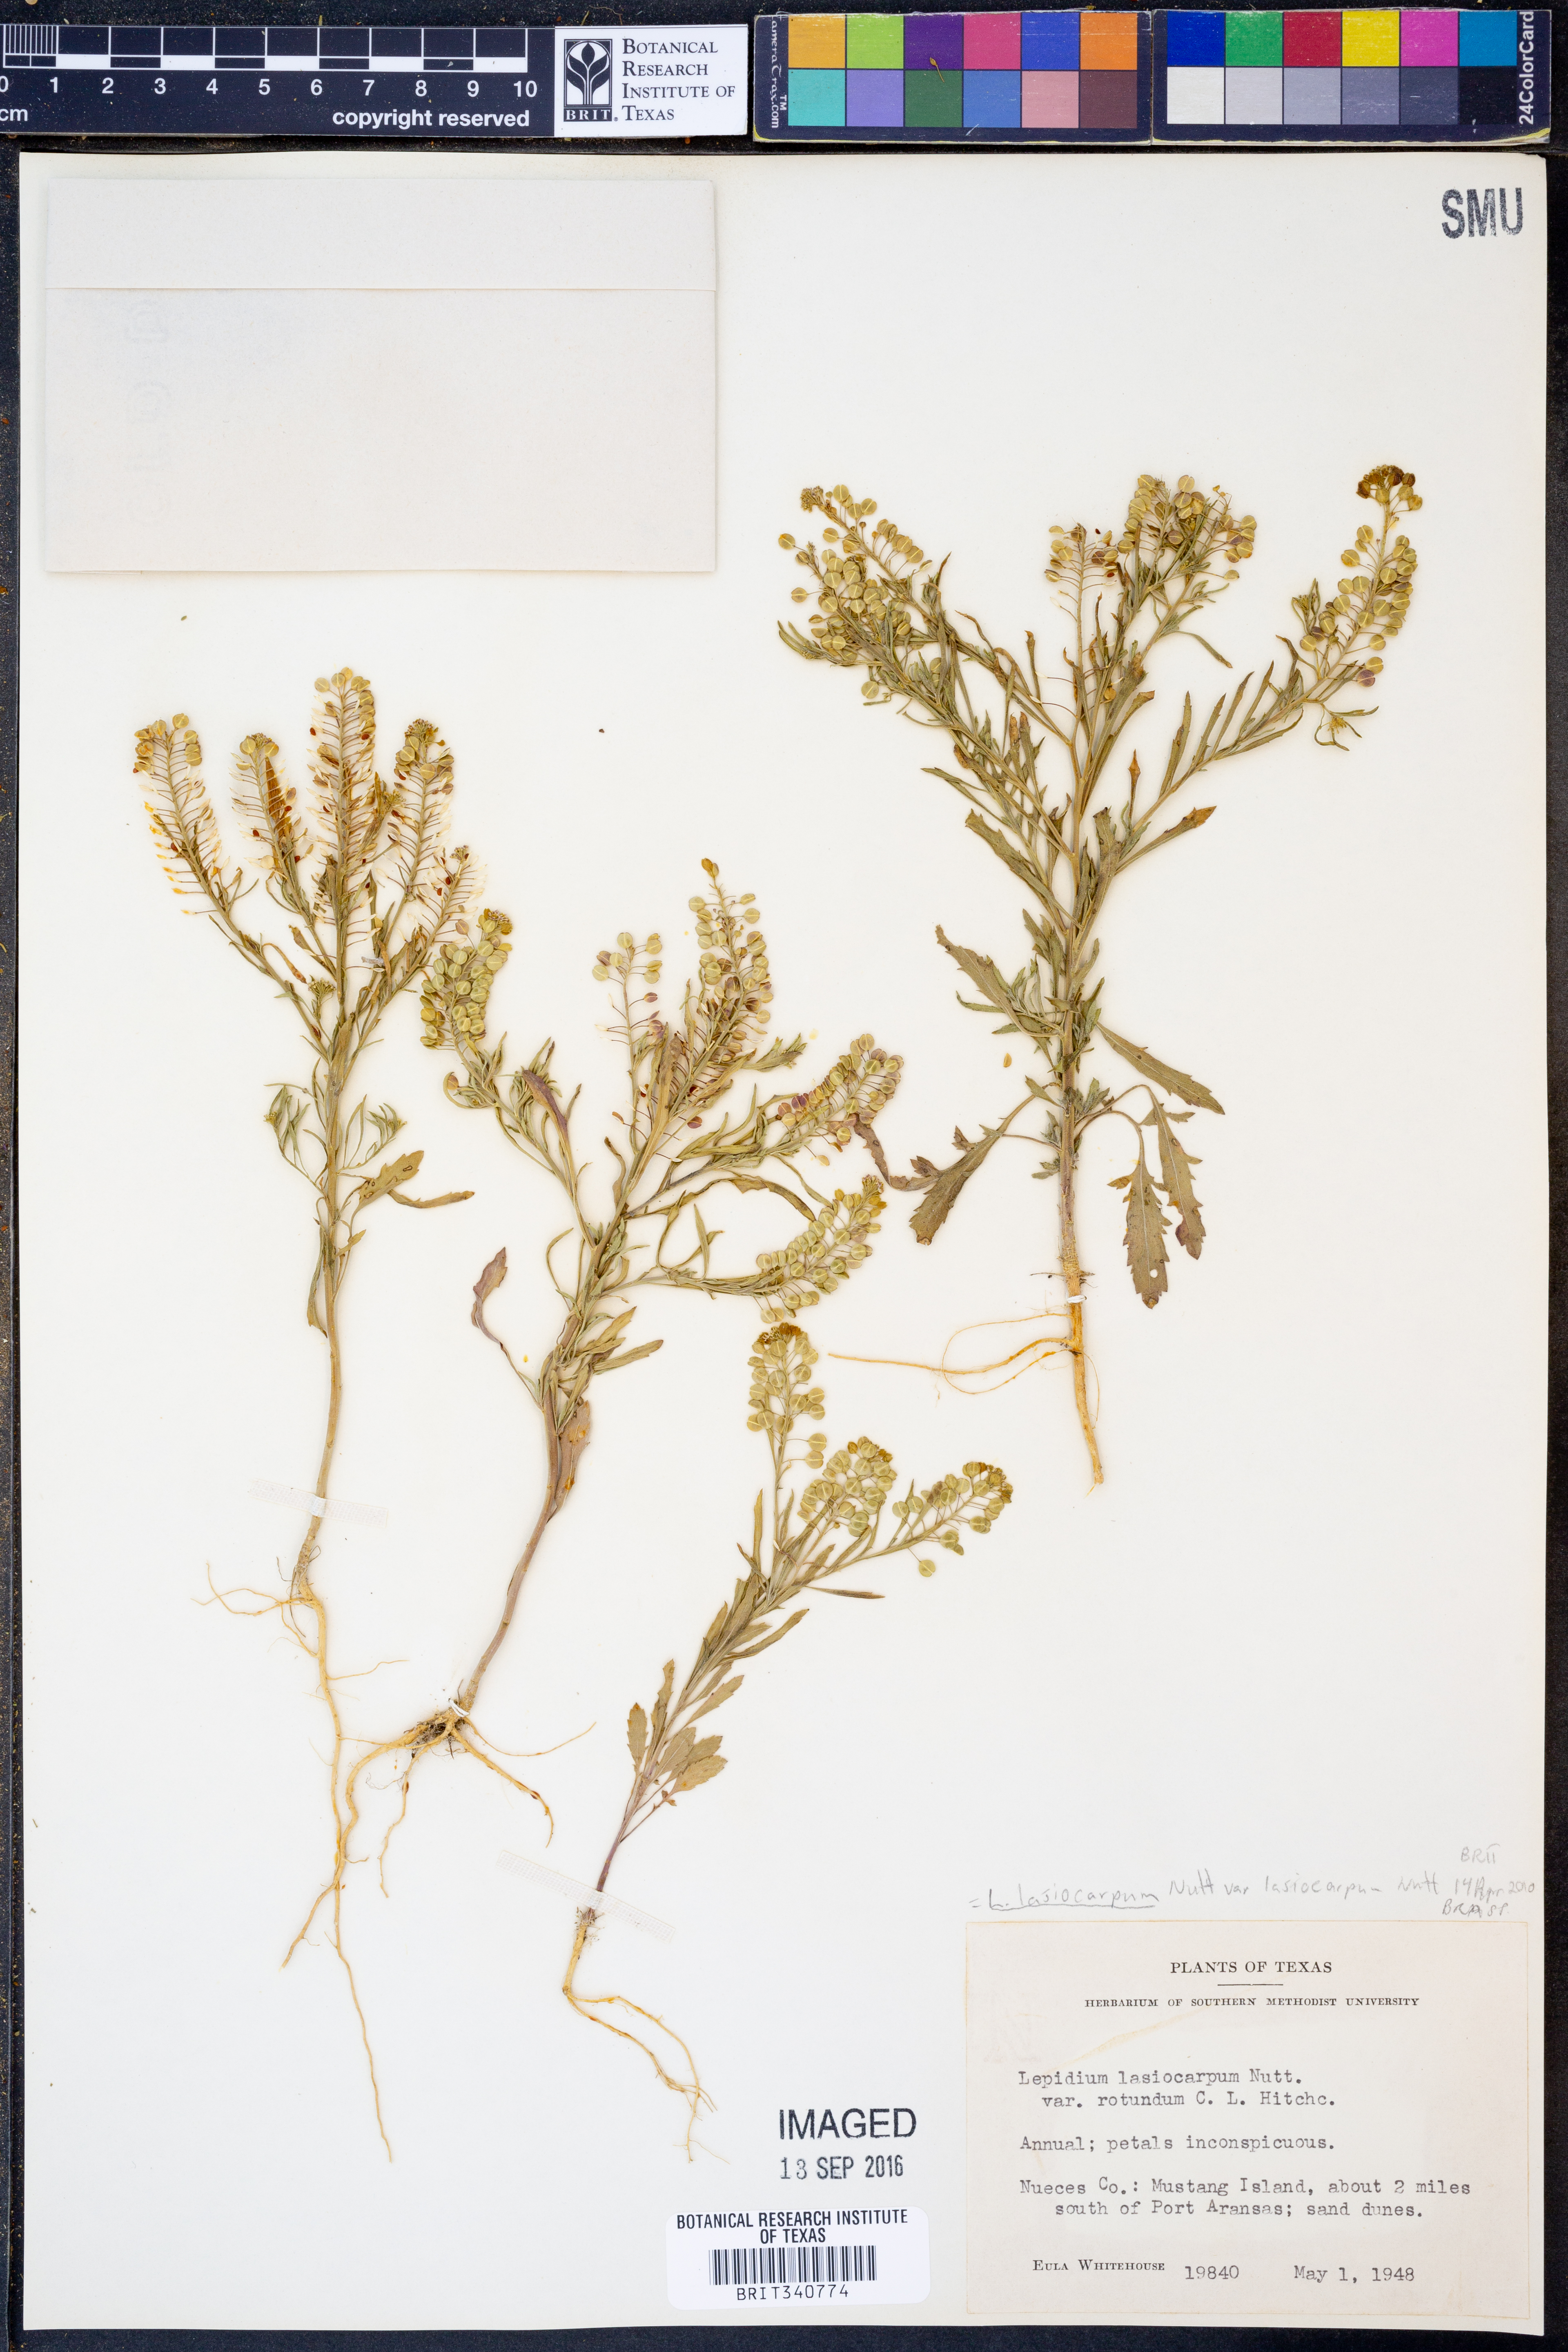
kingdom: Plantae
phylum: Tracheophyta
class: Magnoliopsida
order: Brassicales
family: Brassicaceae
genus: Lepidium
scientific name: Lepidium lasiocarpum
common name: Hairy-pod pepperwort
